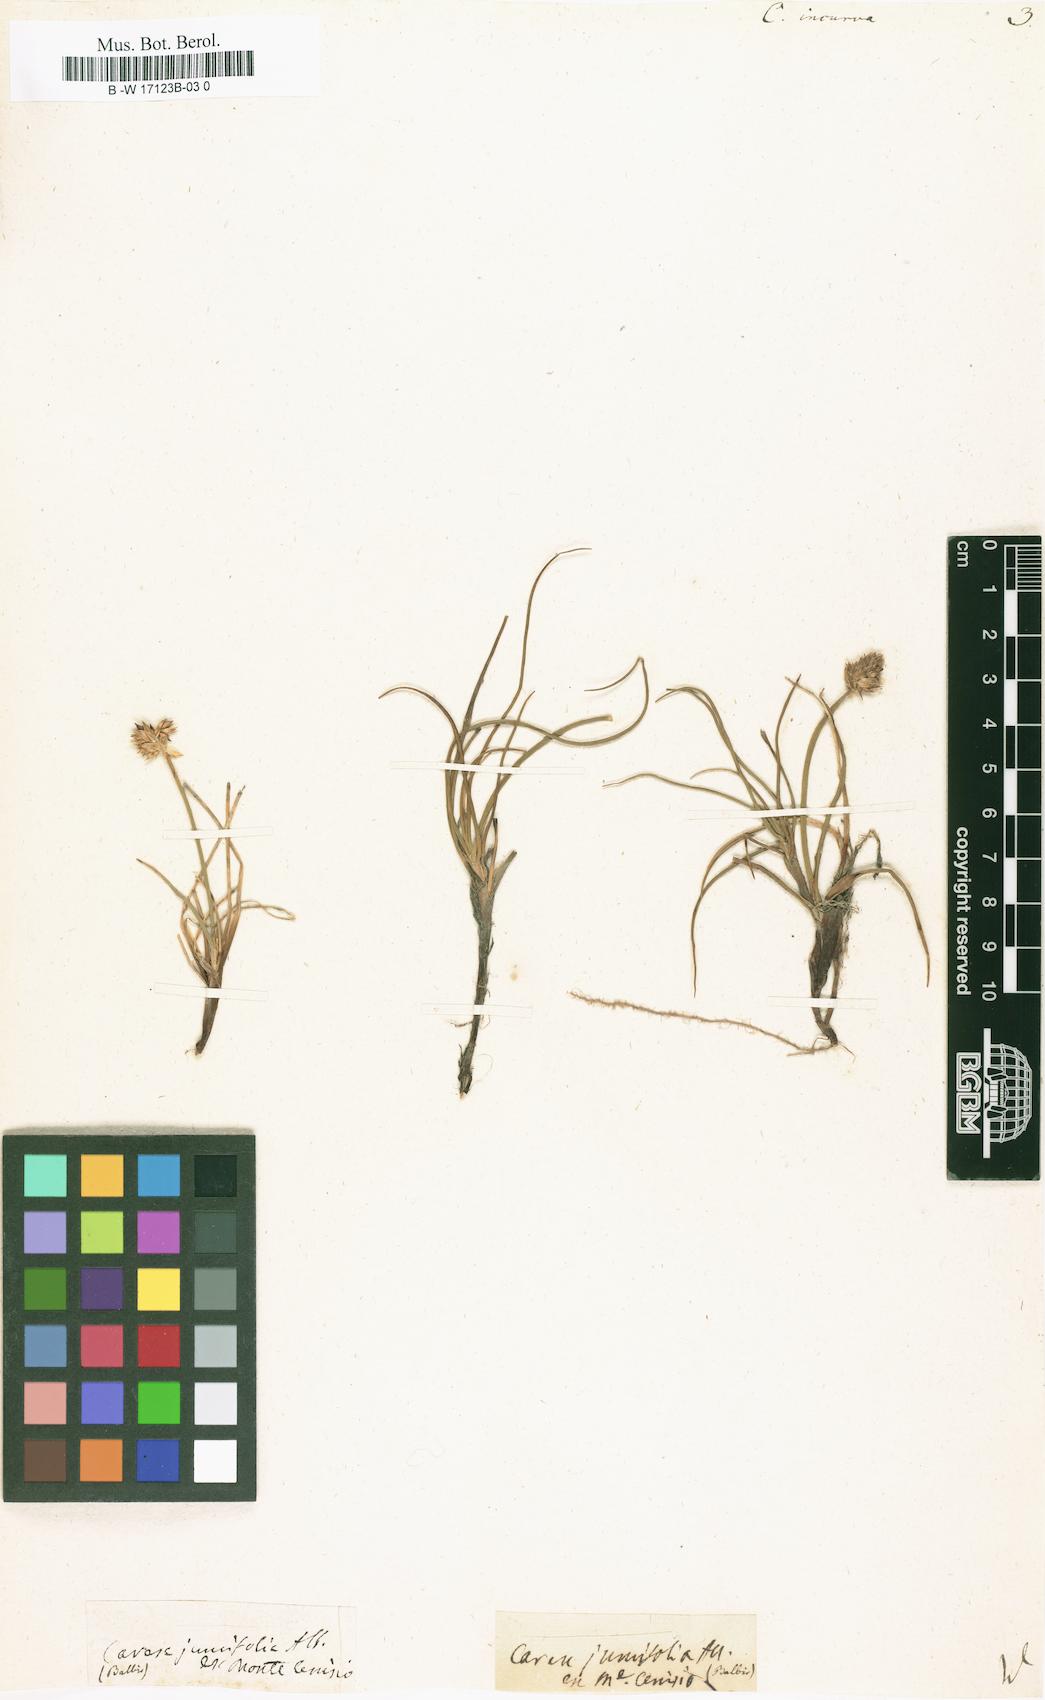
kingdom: Plantae
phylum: Tracheophyta
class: Liliopsida
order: Poales
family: Cyperaceae
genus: Carex
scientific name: Carex
